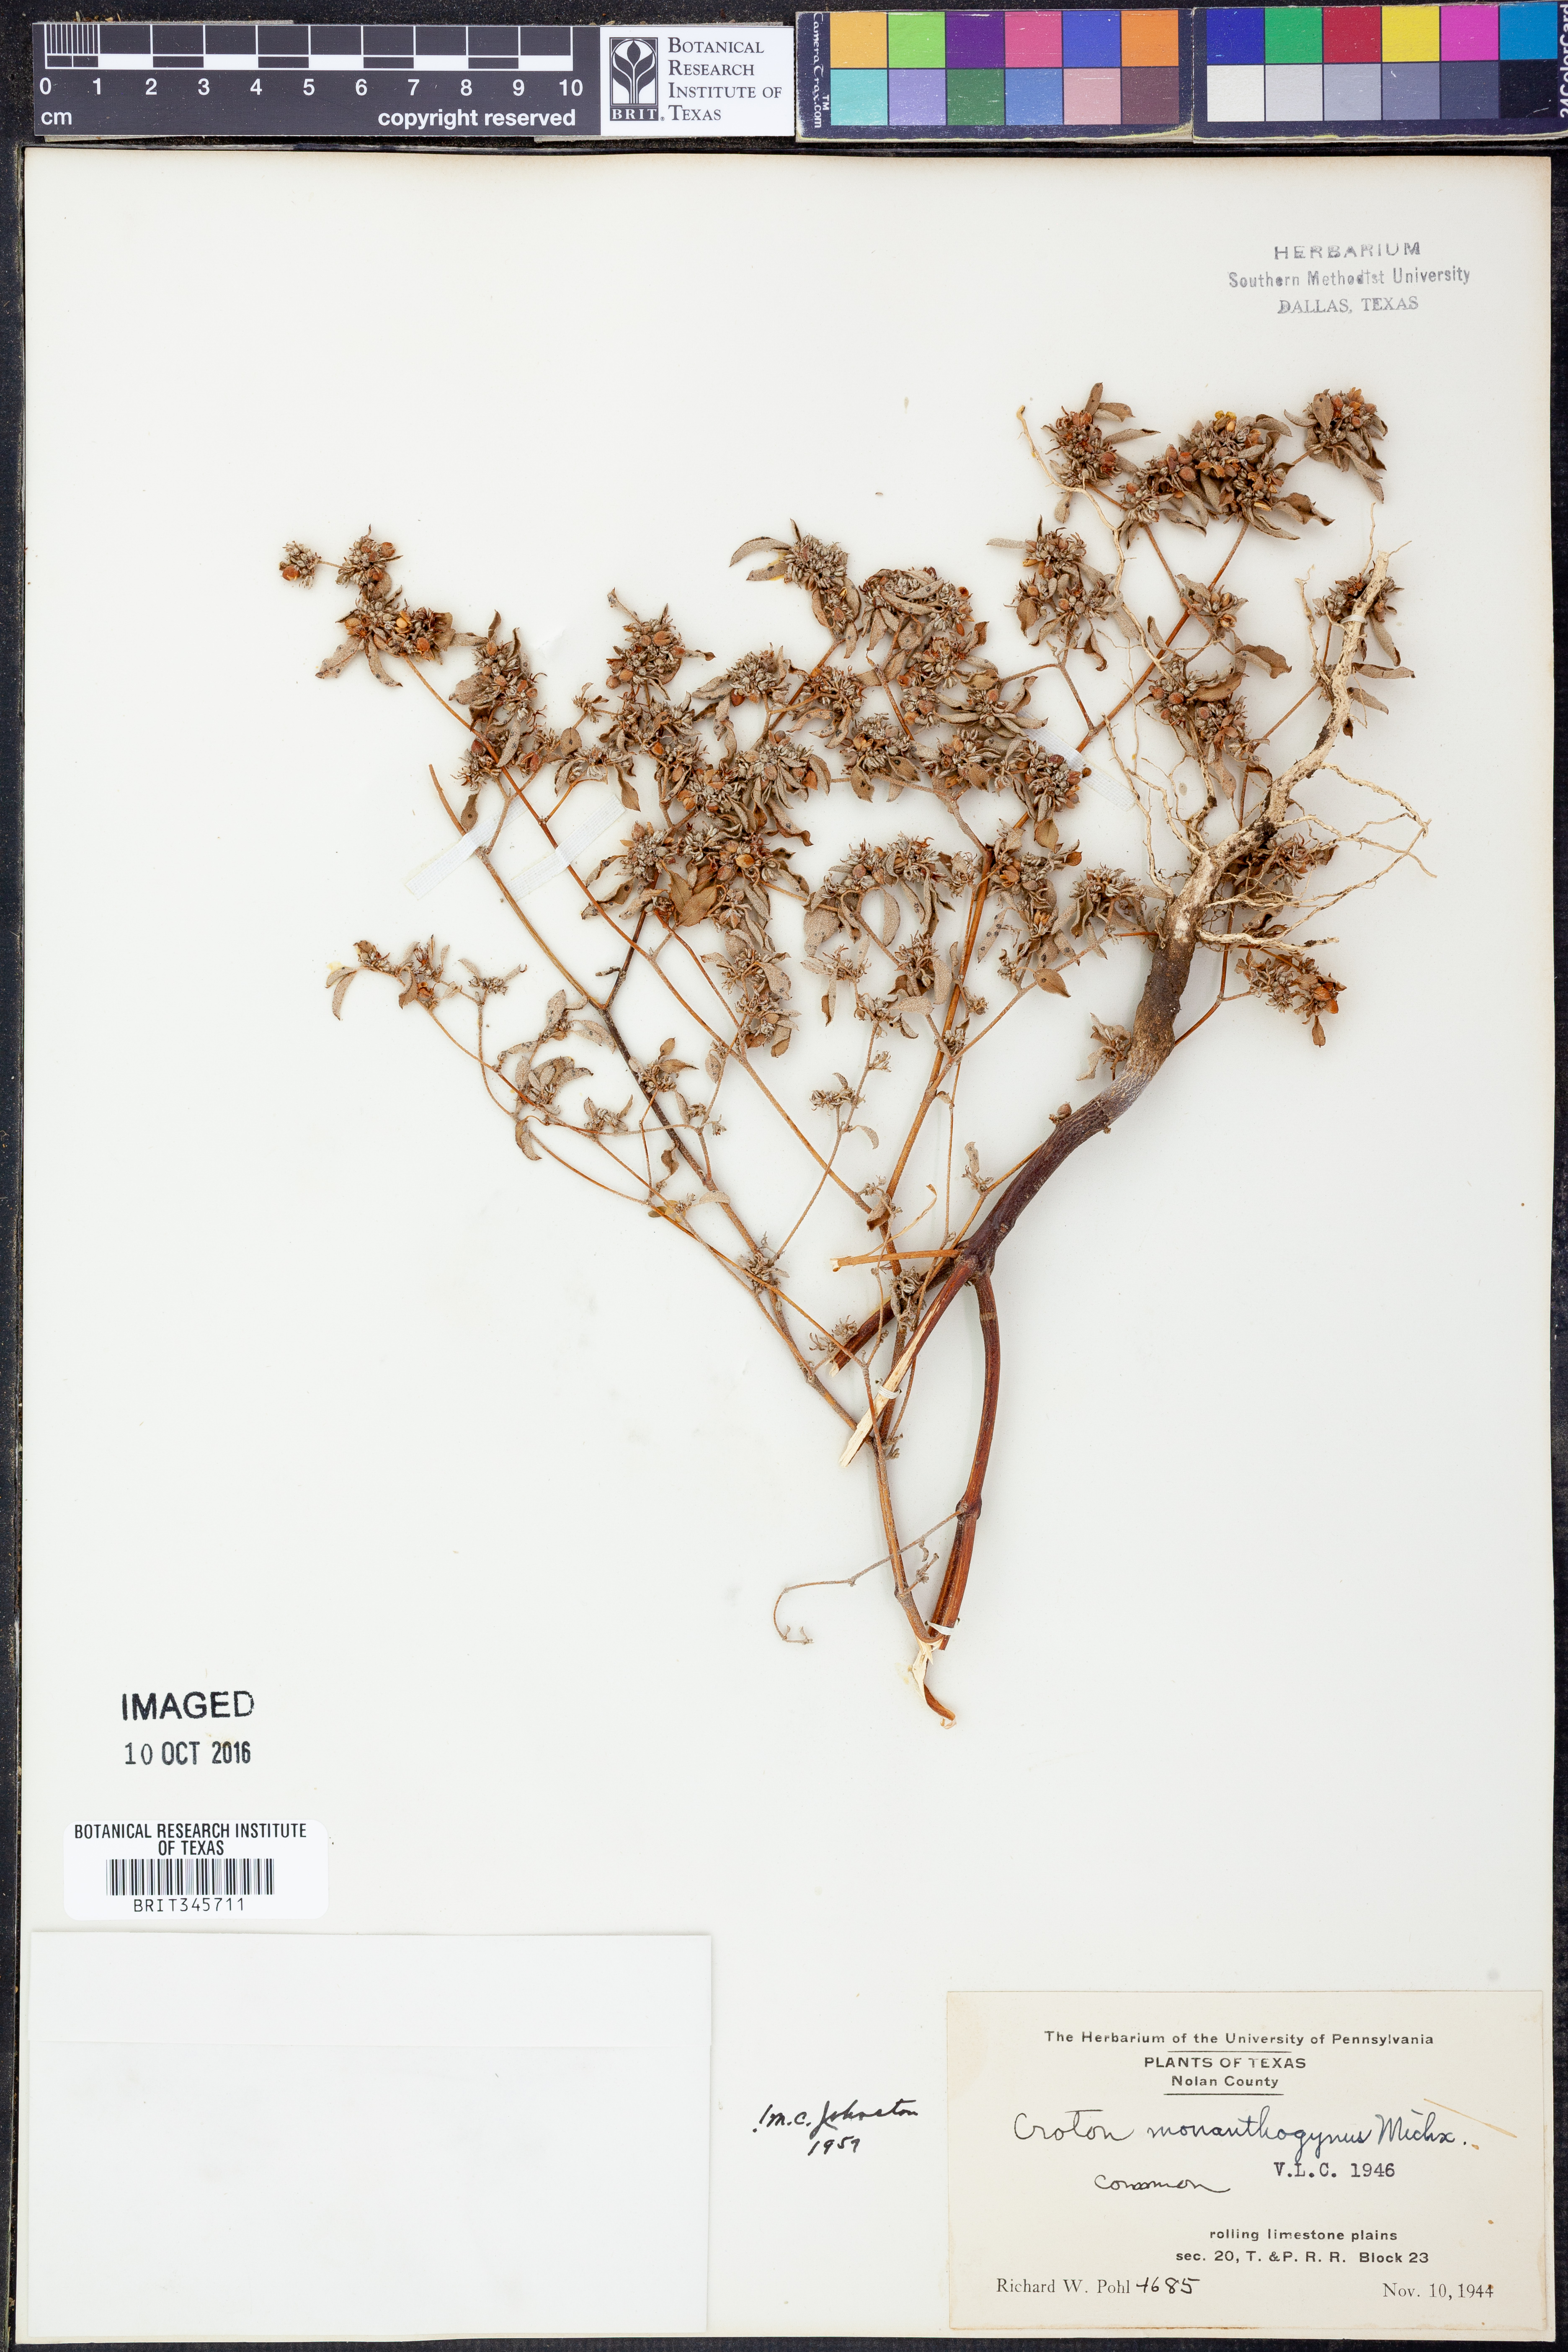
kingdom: Plantae
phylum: Tracheophyta
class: Magnoliopsida
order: Malpighiales
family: Euphorbiaceae
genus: Croton
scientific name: Croton monanthogynus
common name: One-seed croton
